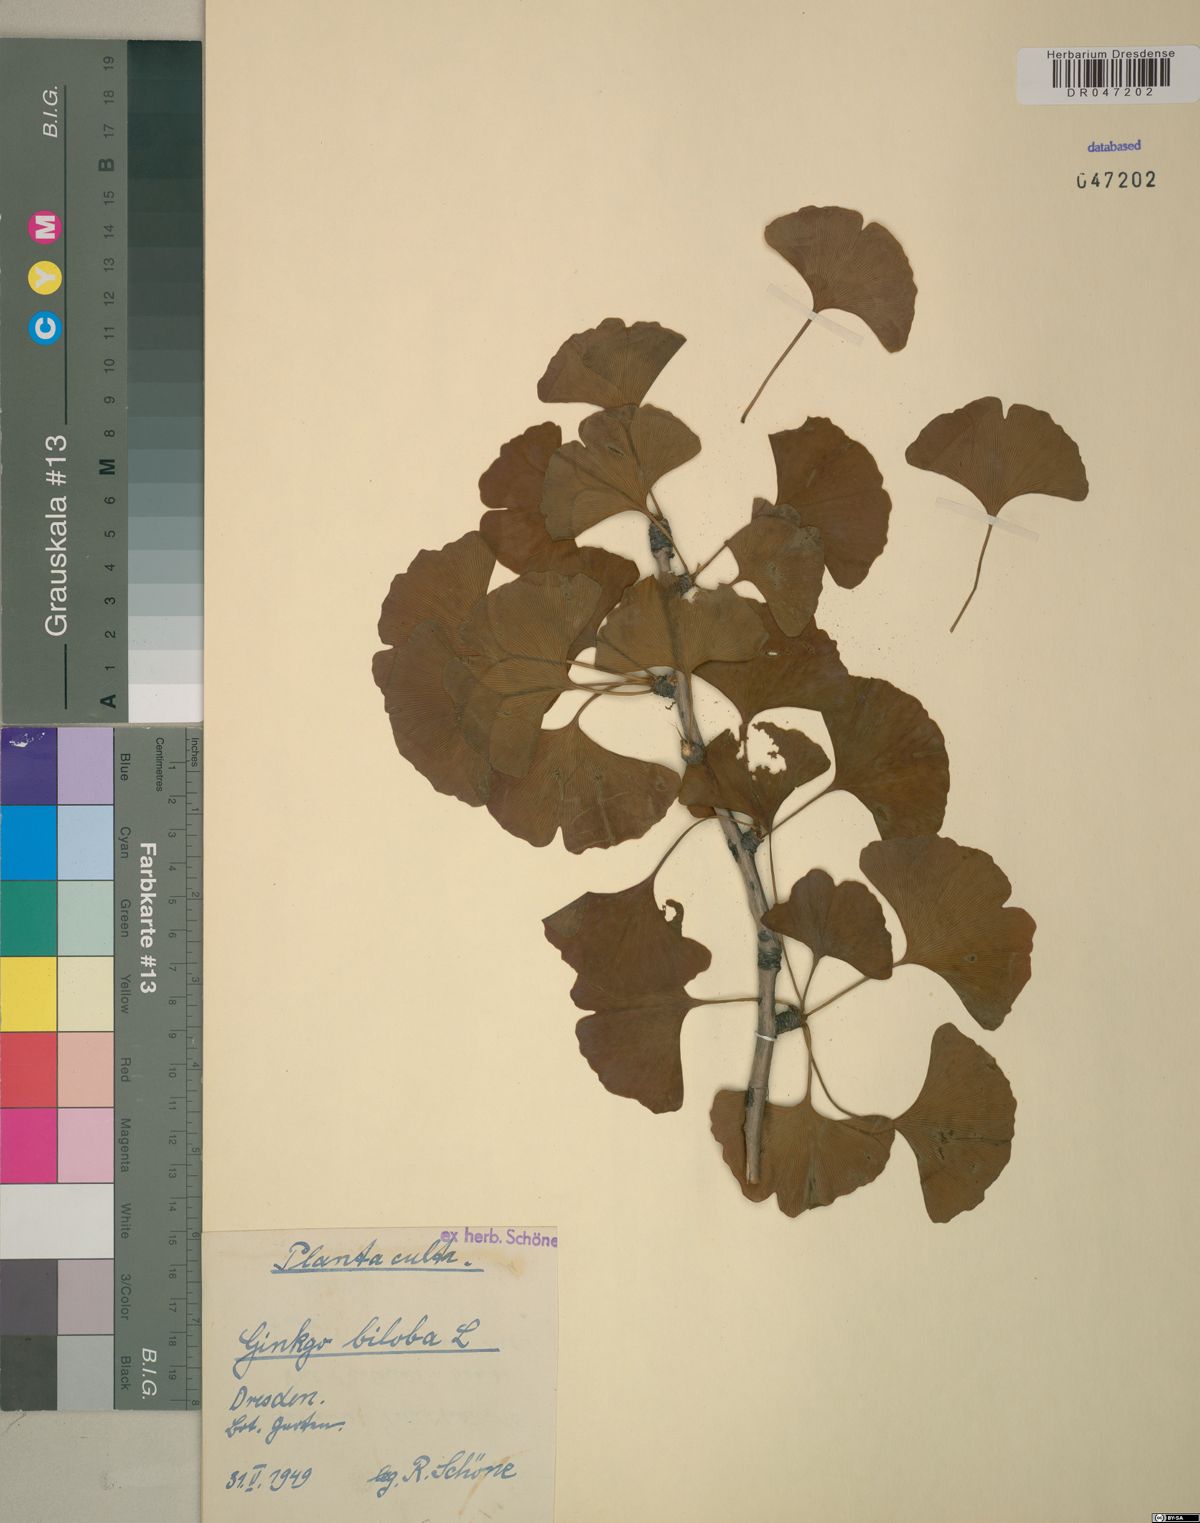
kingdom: Plantae
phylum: Tracheophyta
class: Ginkgoopsida
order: Ginkgoales
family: Ginkgoaceae
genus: Ginkgo
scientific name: Ginkgo biloba
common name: Ginkgo
